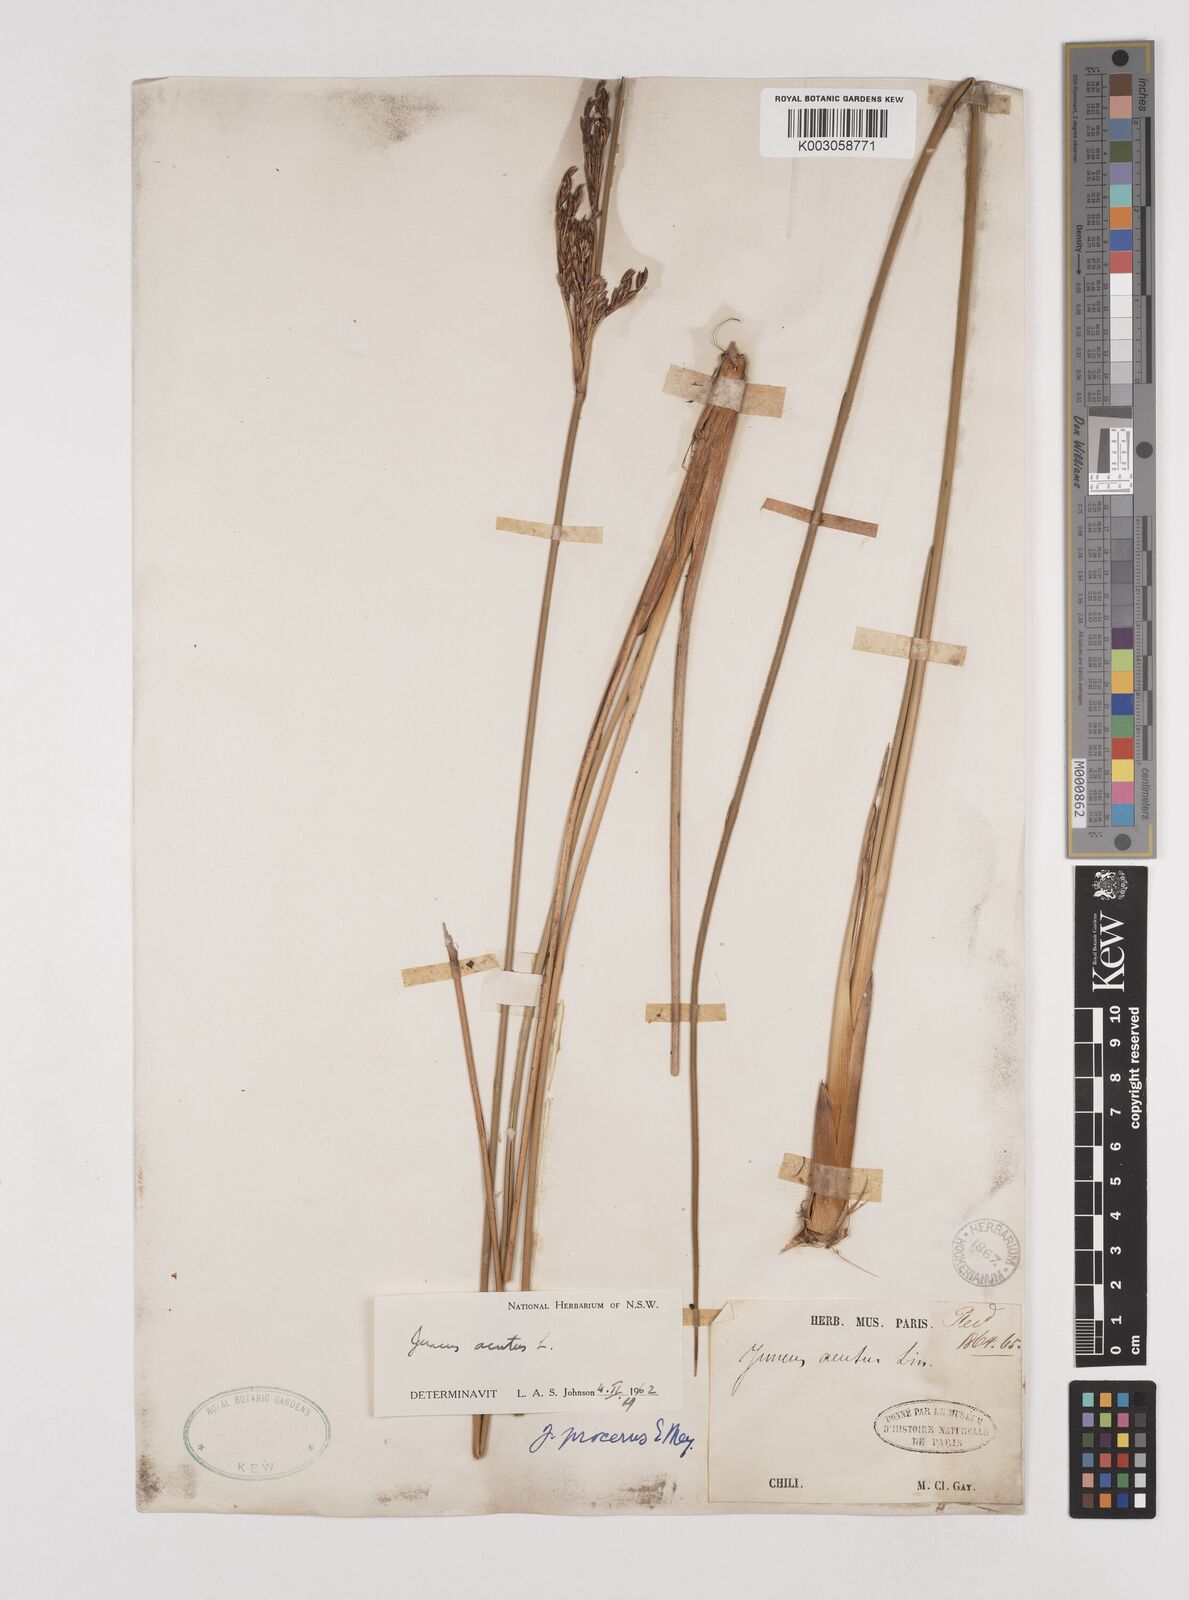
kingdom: Plantae
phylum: Tracheophyta
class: Liliopsida
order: Poales
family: Juncaceae
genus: Juncus
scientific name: Juncus acutus
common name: Sharp rush
